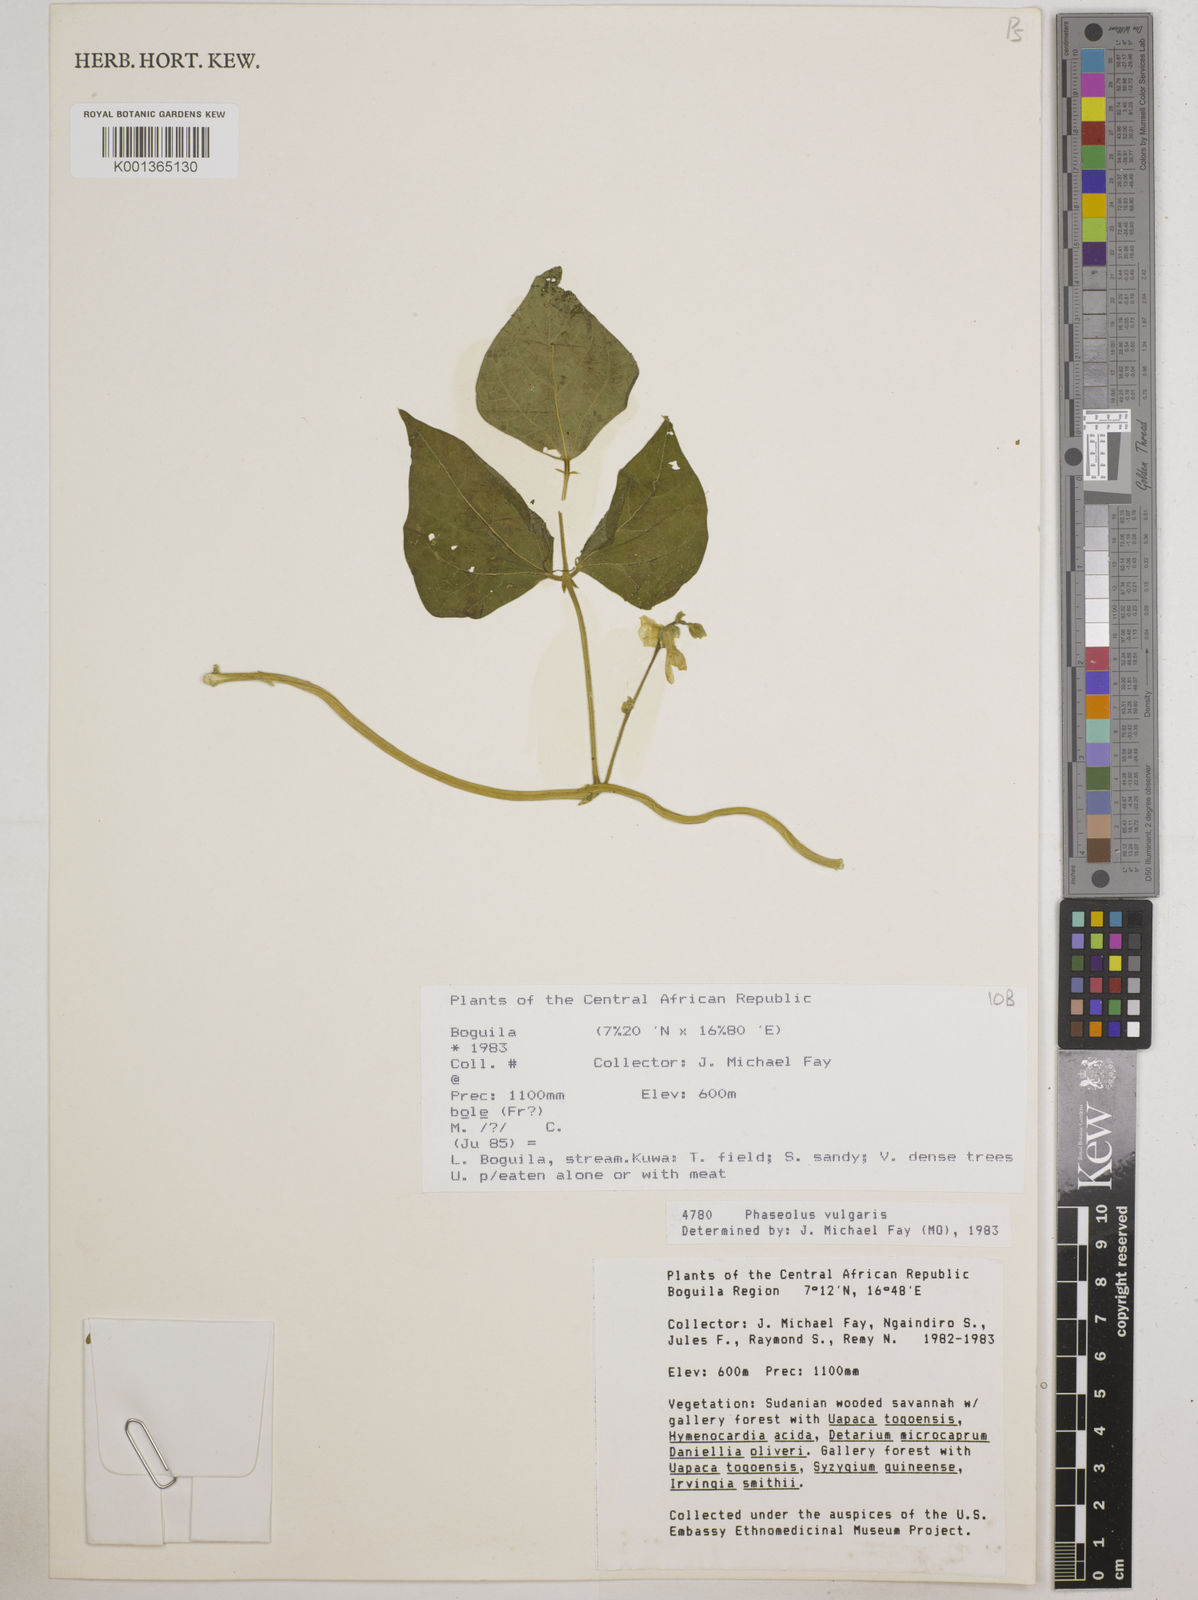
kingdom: Plantae
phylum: Tracheophyta
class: Magnoliopsida
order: Fabales
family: Fabaceae
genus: Phaseolus
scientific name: Phaseolus vulgaris
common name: Bean
